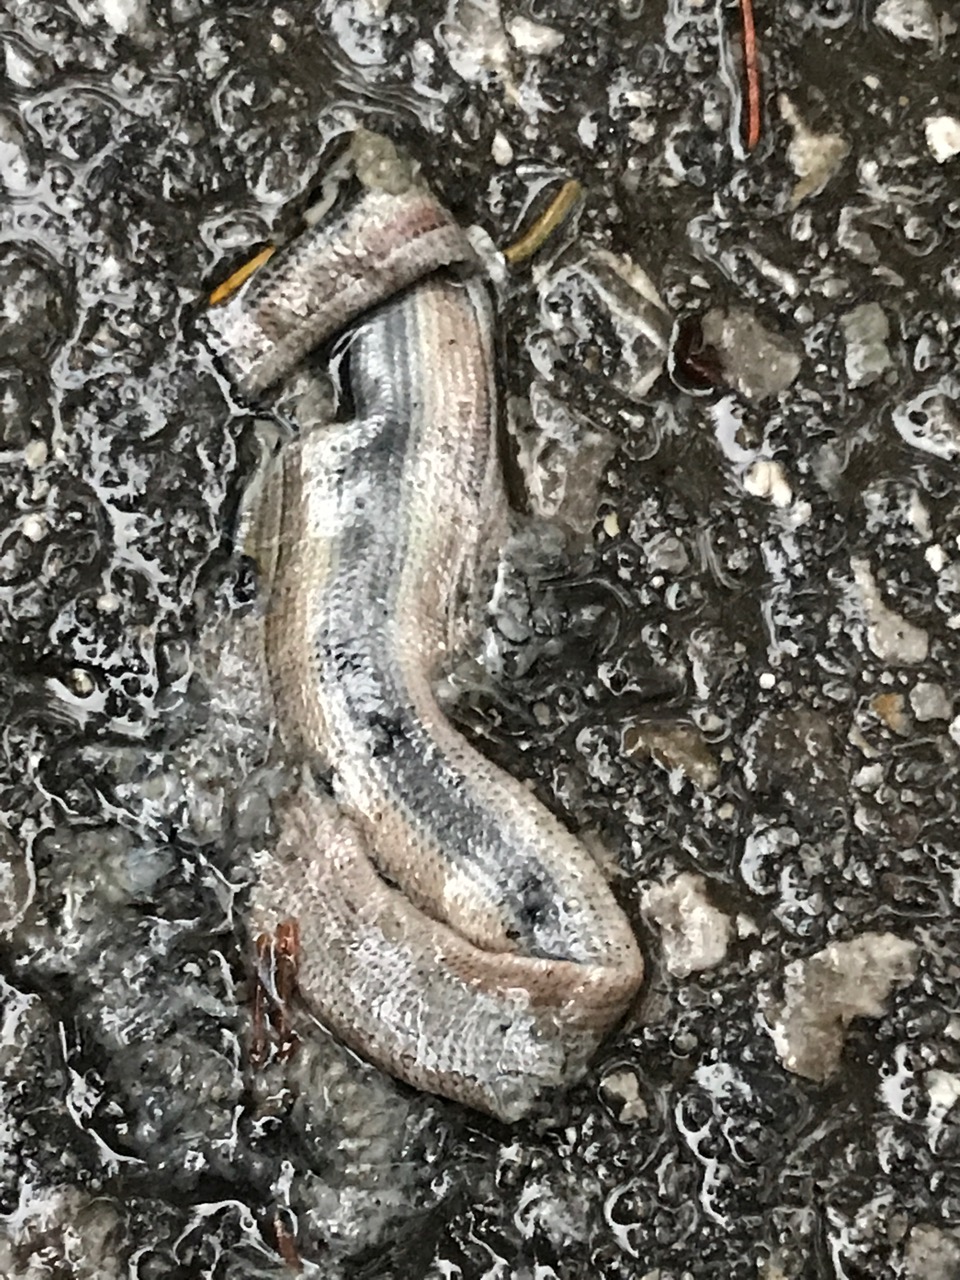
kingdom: Animalia
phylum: Chordata
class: Squamata
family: Anguidae
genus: Anguis
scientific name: Anguis fragilis
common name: Slow worm
